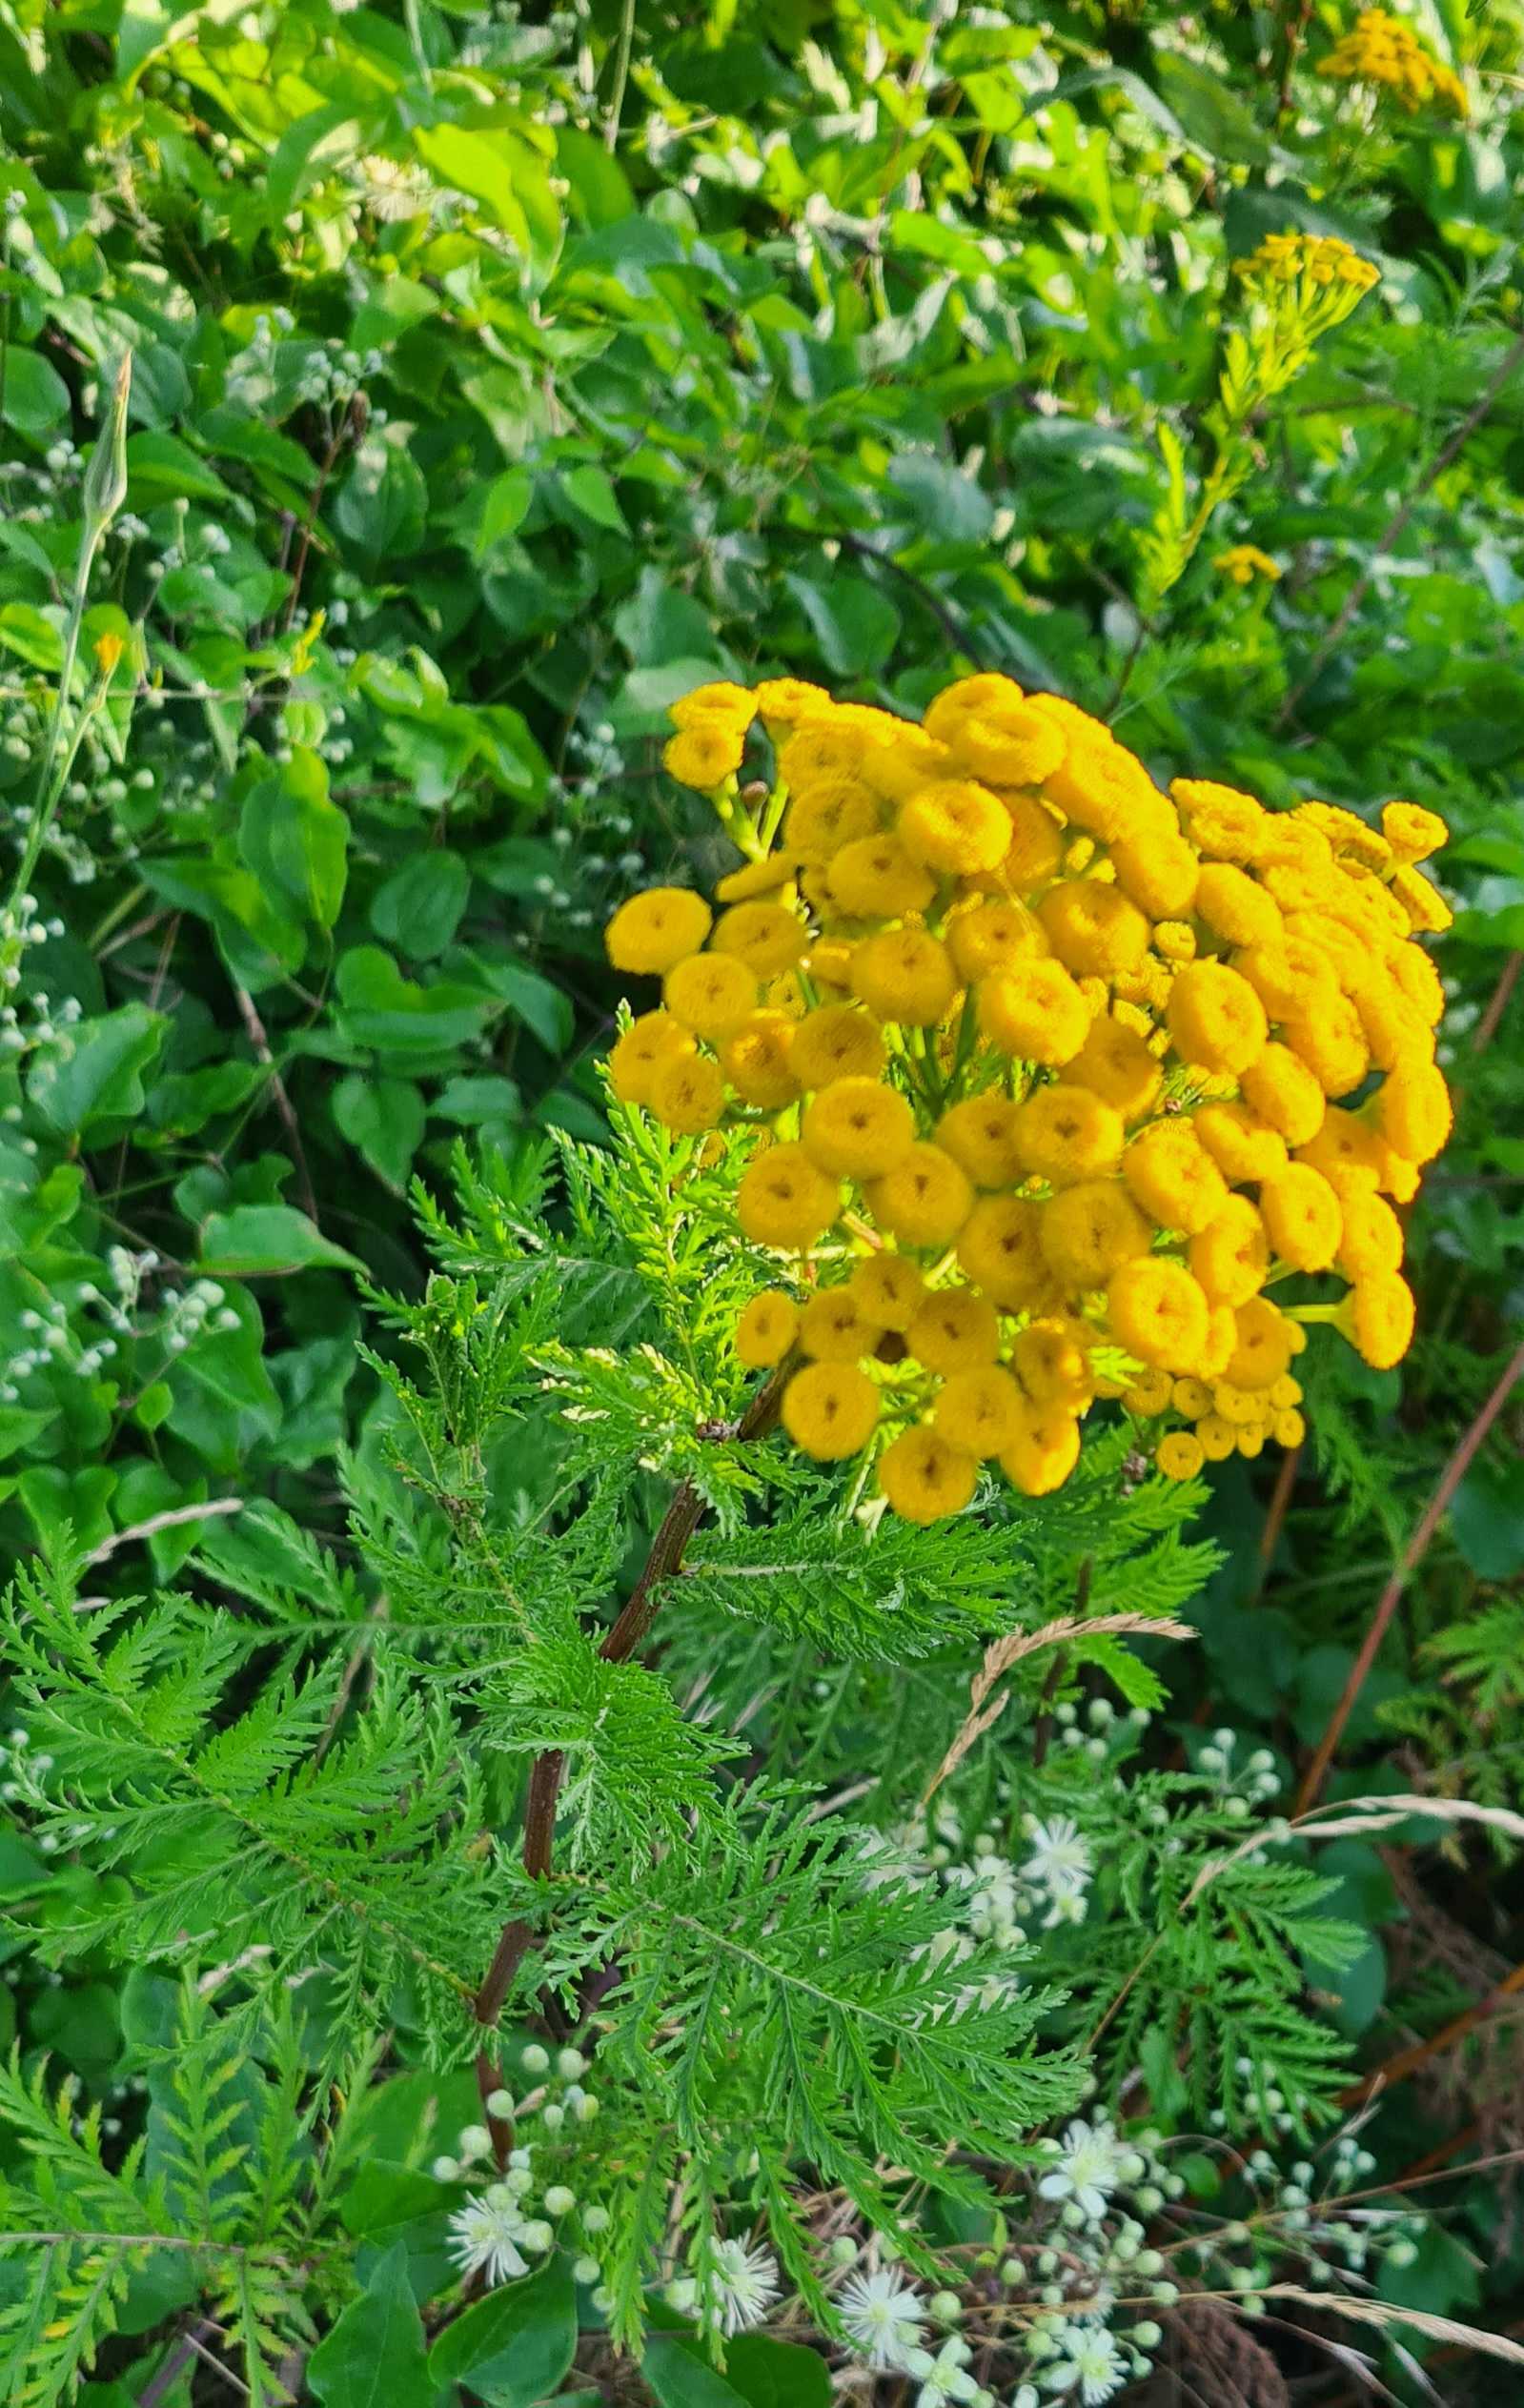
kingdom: Plantae
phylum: Tracheophyta
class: Magnoliopsida
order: Asterales
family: Asteraceae
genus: Tanacetum
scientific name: Tanacetum vulgare
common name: Rejnfan
